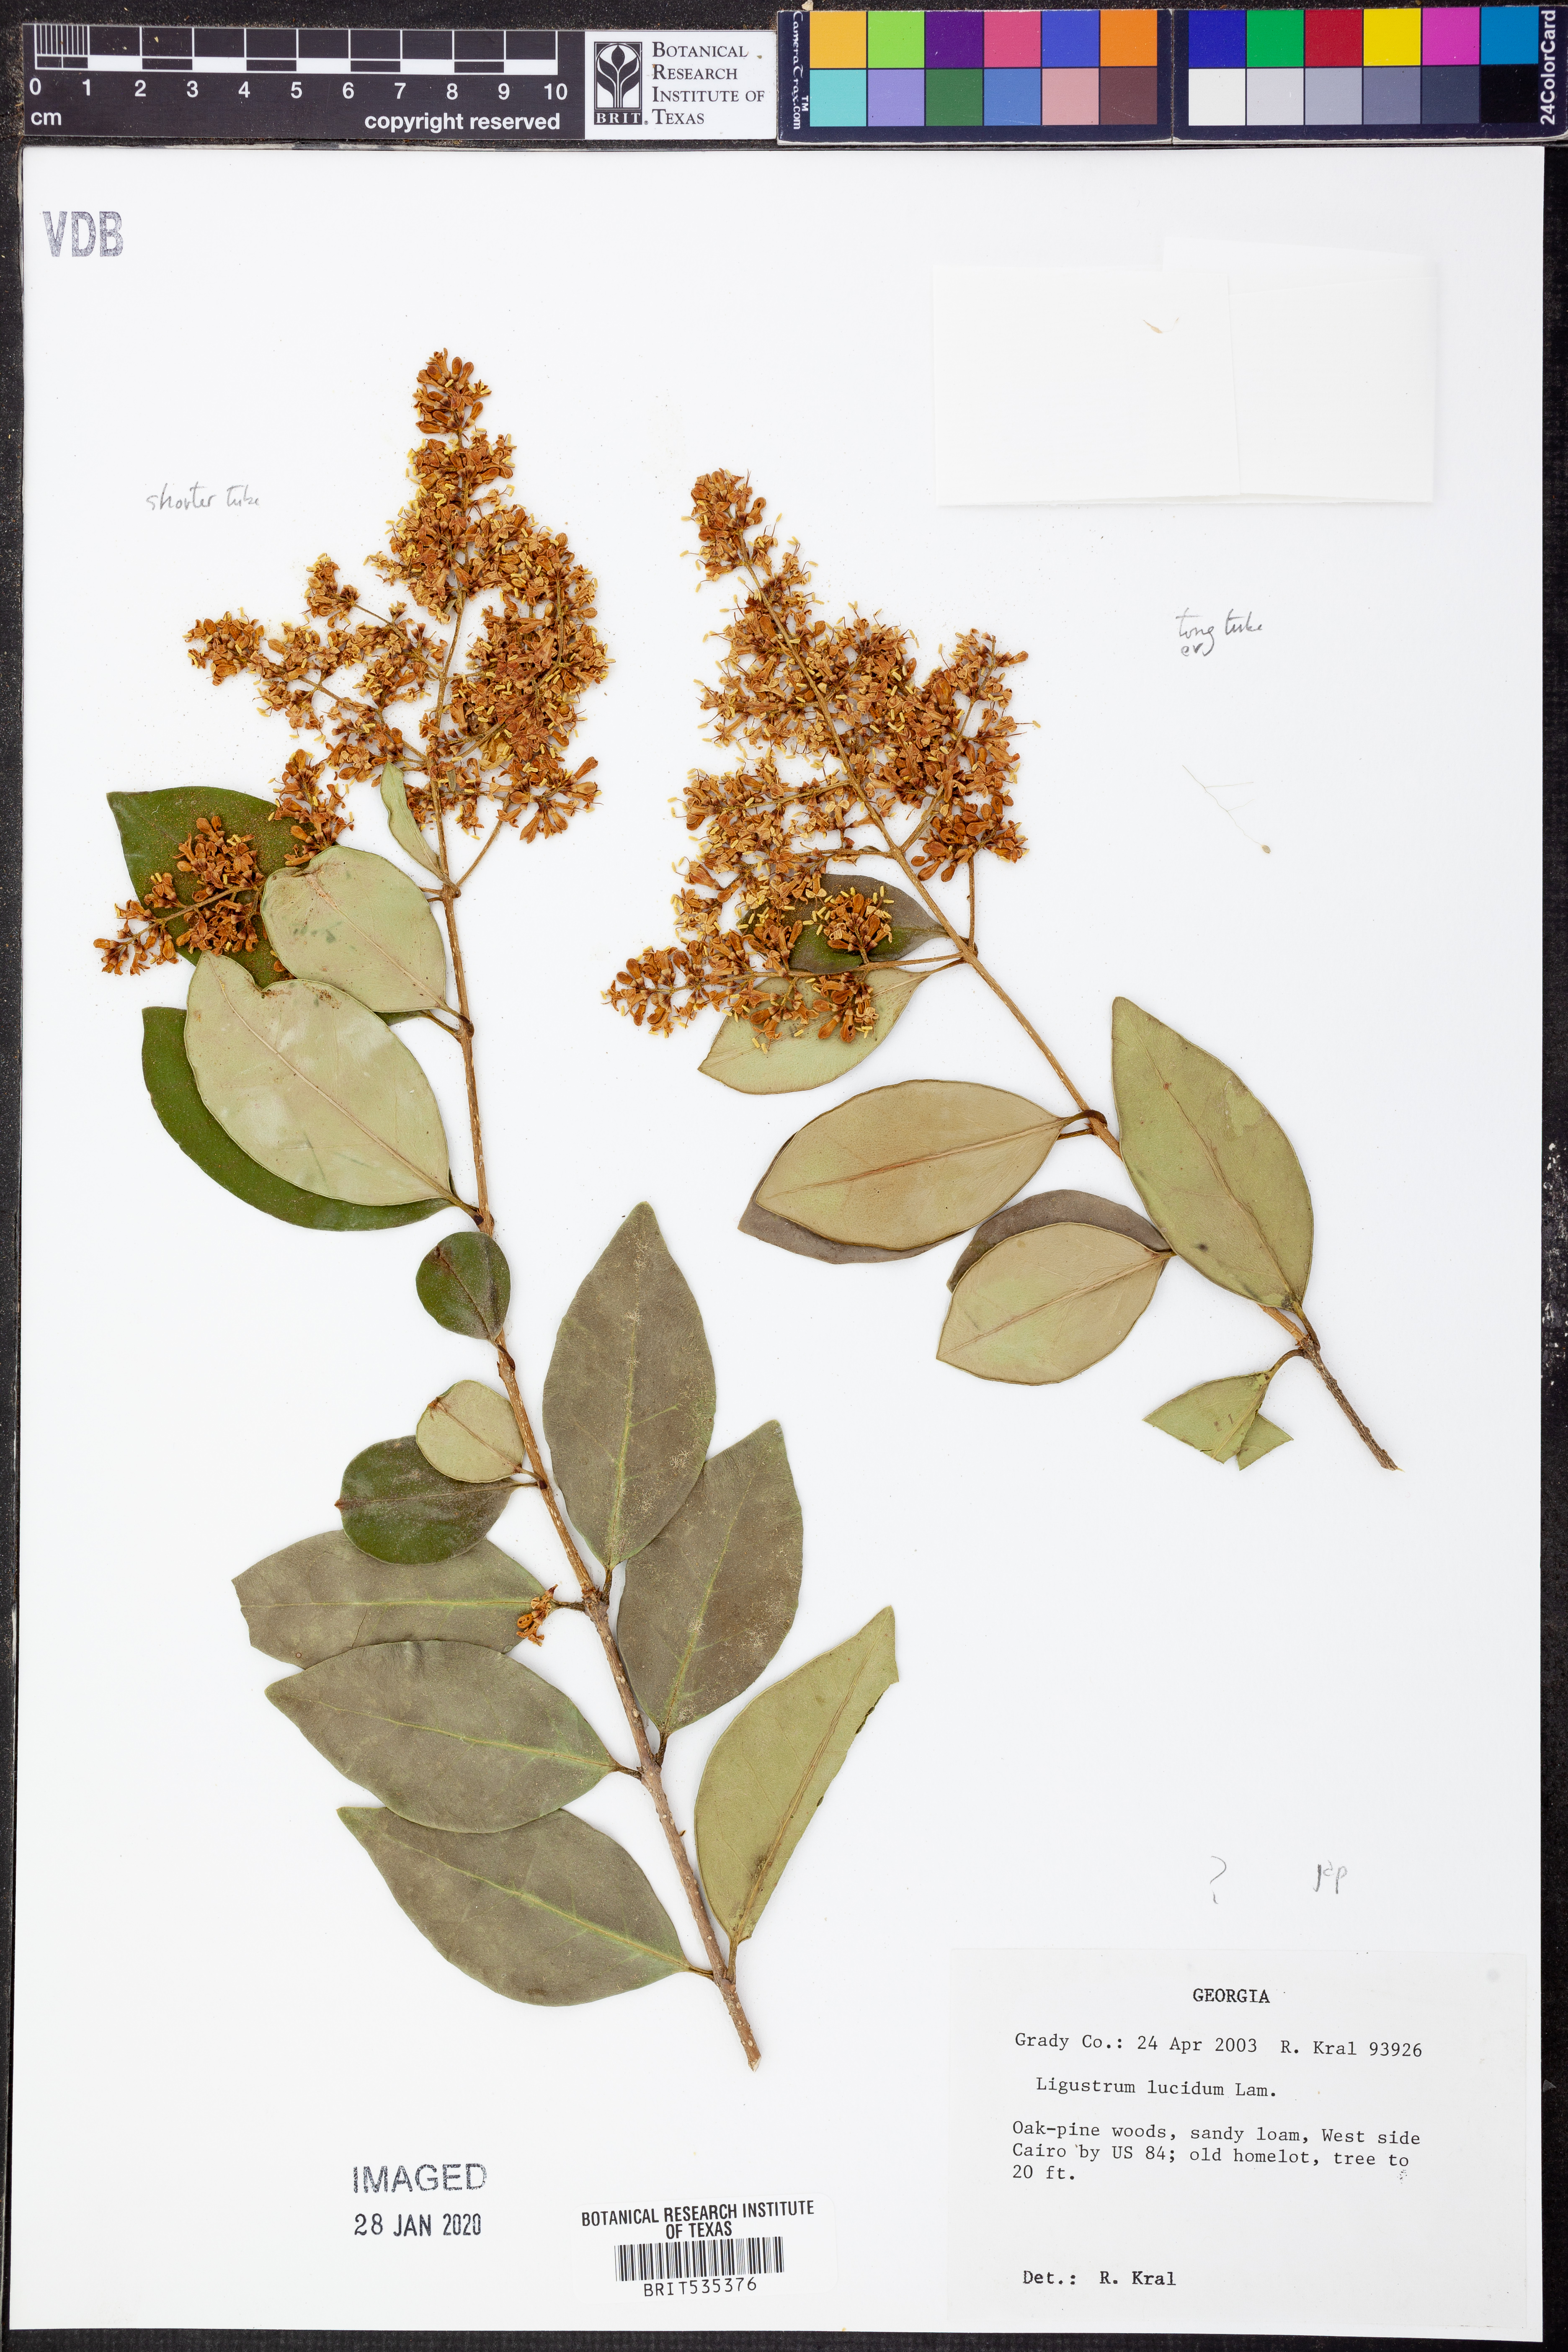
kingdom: Plantae
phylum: Tracheophyta
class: Magnoliopsida
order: Lamiales
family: Oleaceae
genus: Ligustrum
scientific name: Ligustrum lucidum
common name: Glossy privet
